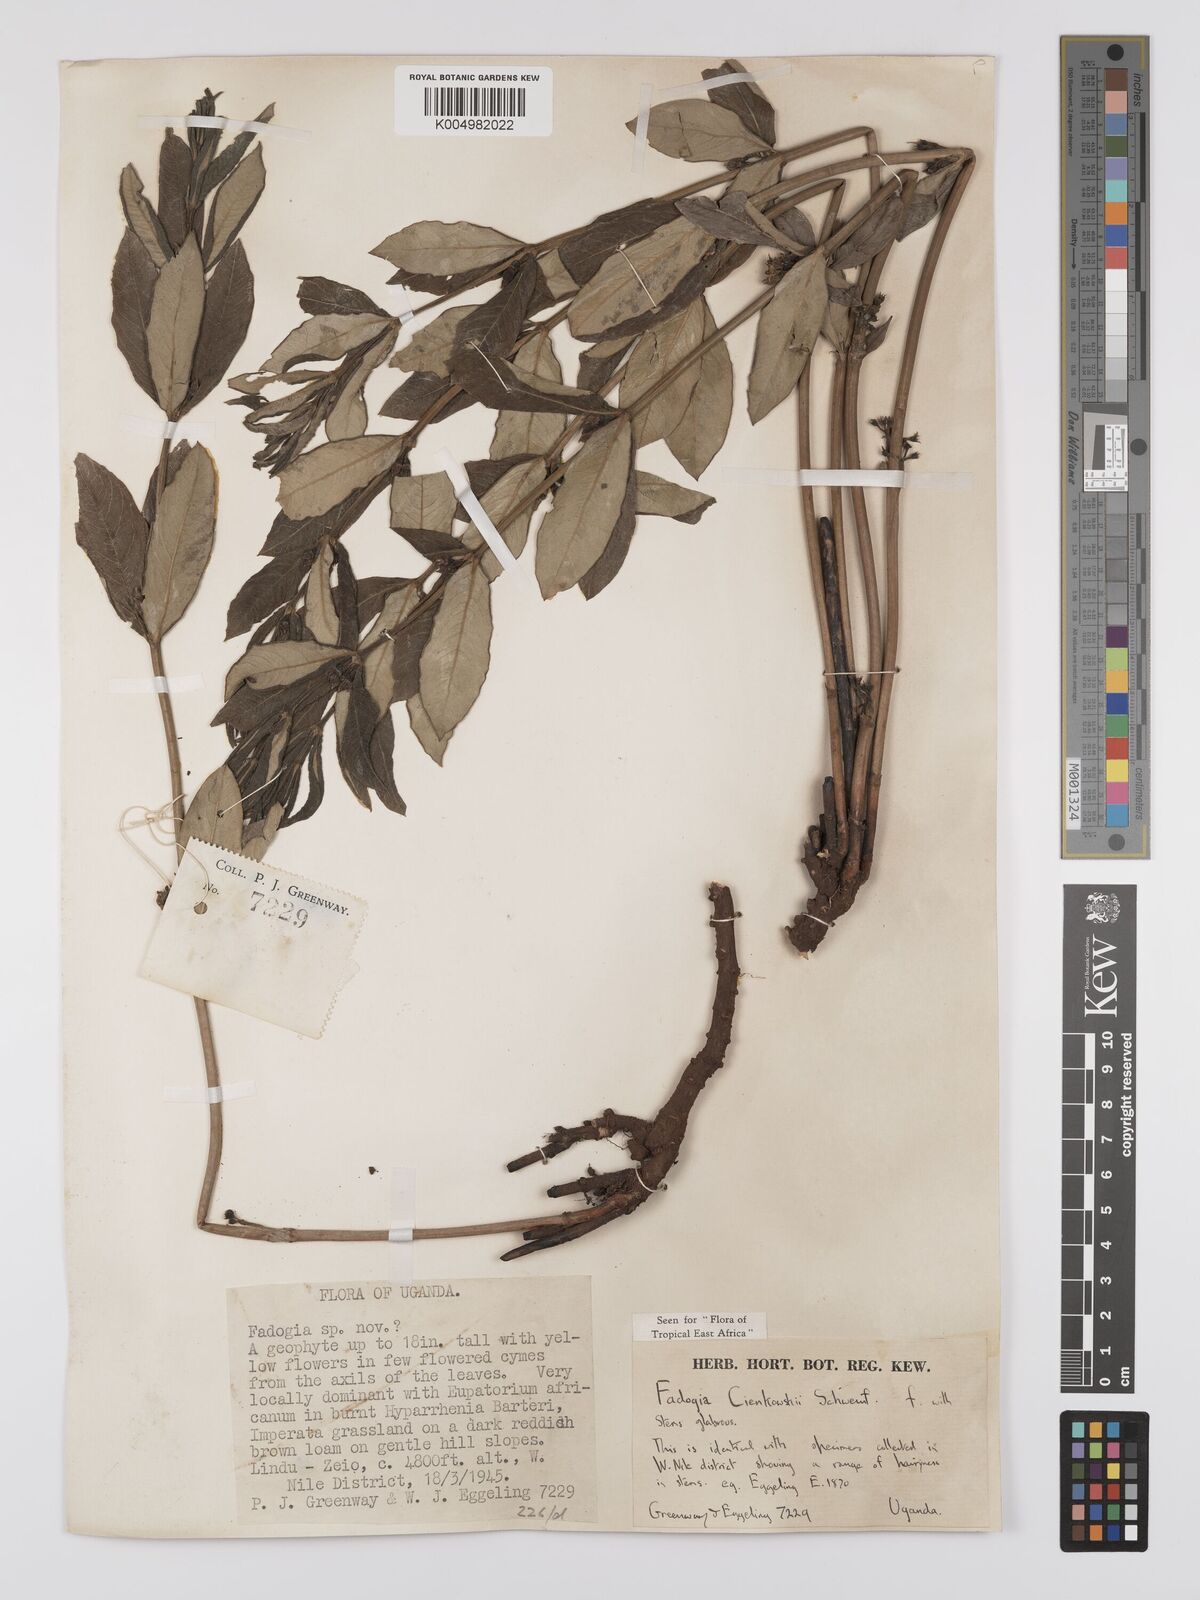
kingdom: Plantae
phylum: Tracheophyta
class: Magnoliopsida
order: Gentianales
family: Rubiaceae
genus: Fadogia
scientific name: Fadogia cienkowskii
